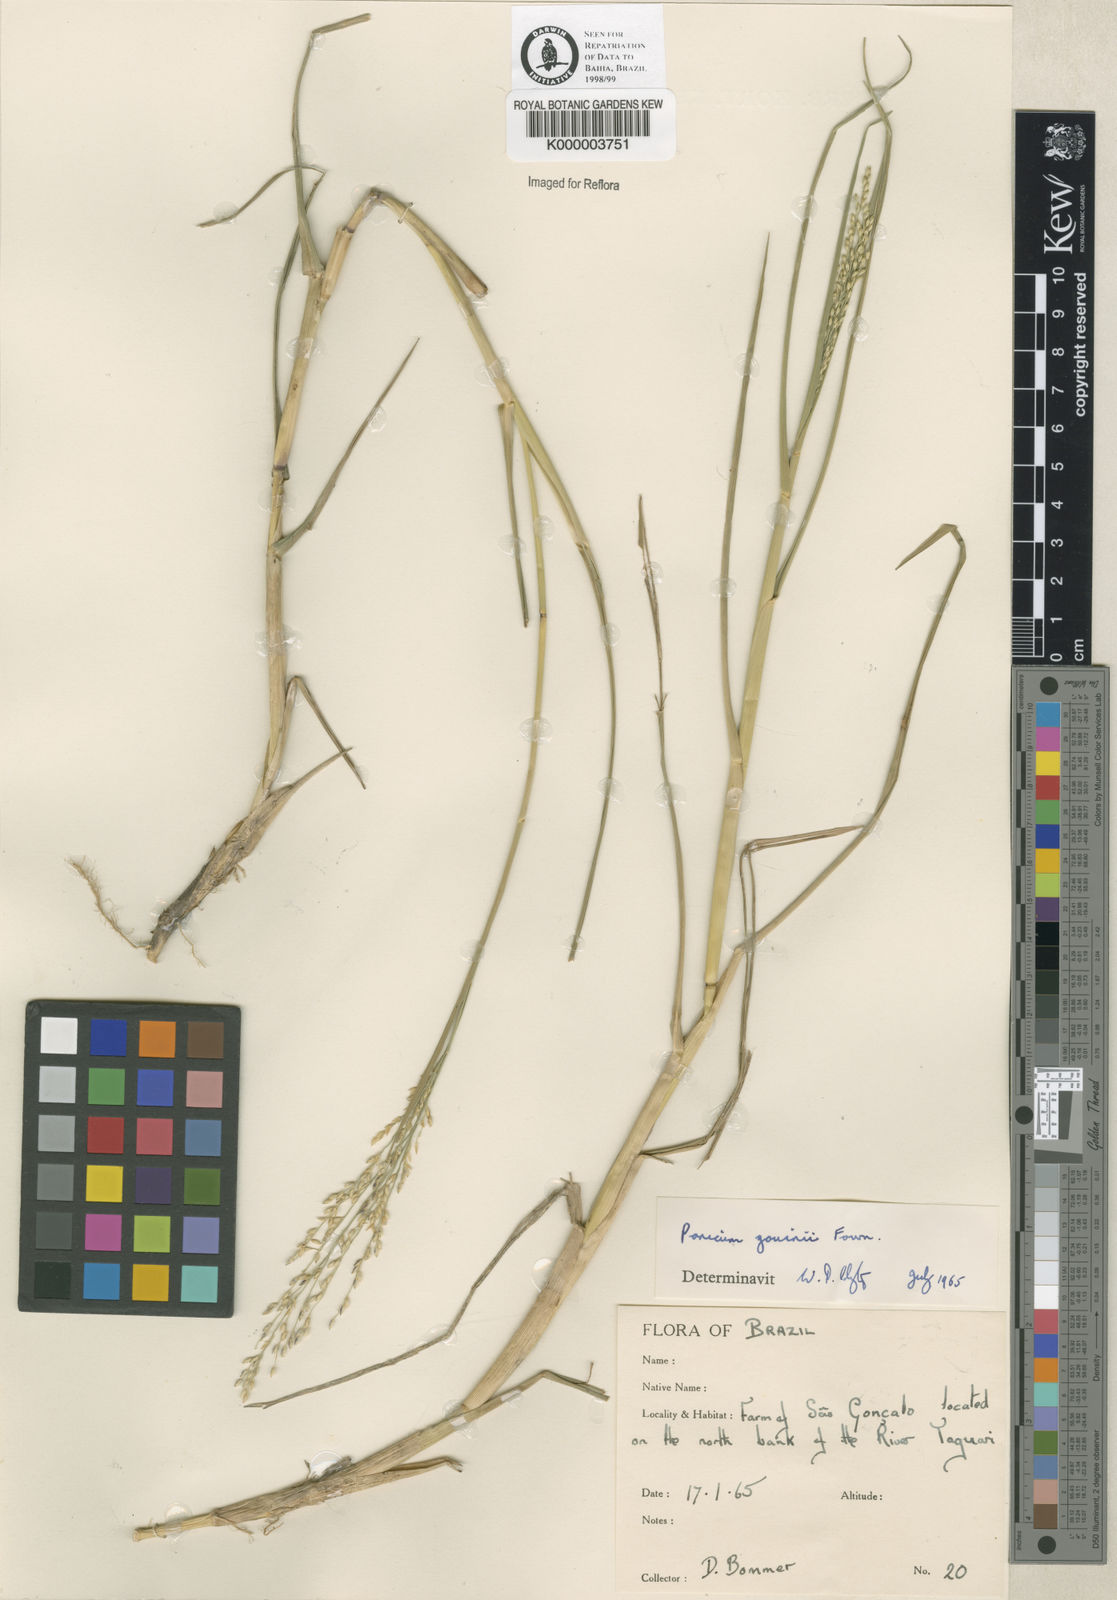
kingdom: Plantae
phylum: Tracheophyta
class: Liliopsida
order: Poales
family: Poaceae
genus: Panicum
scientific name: Panicum repens
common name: Torpedo grass
